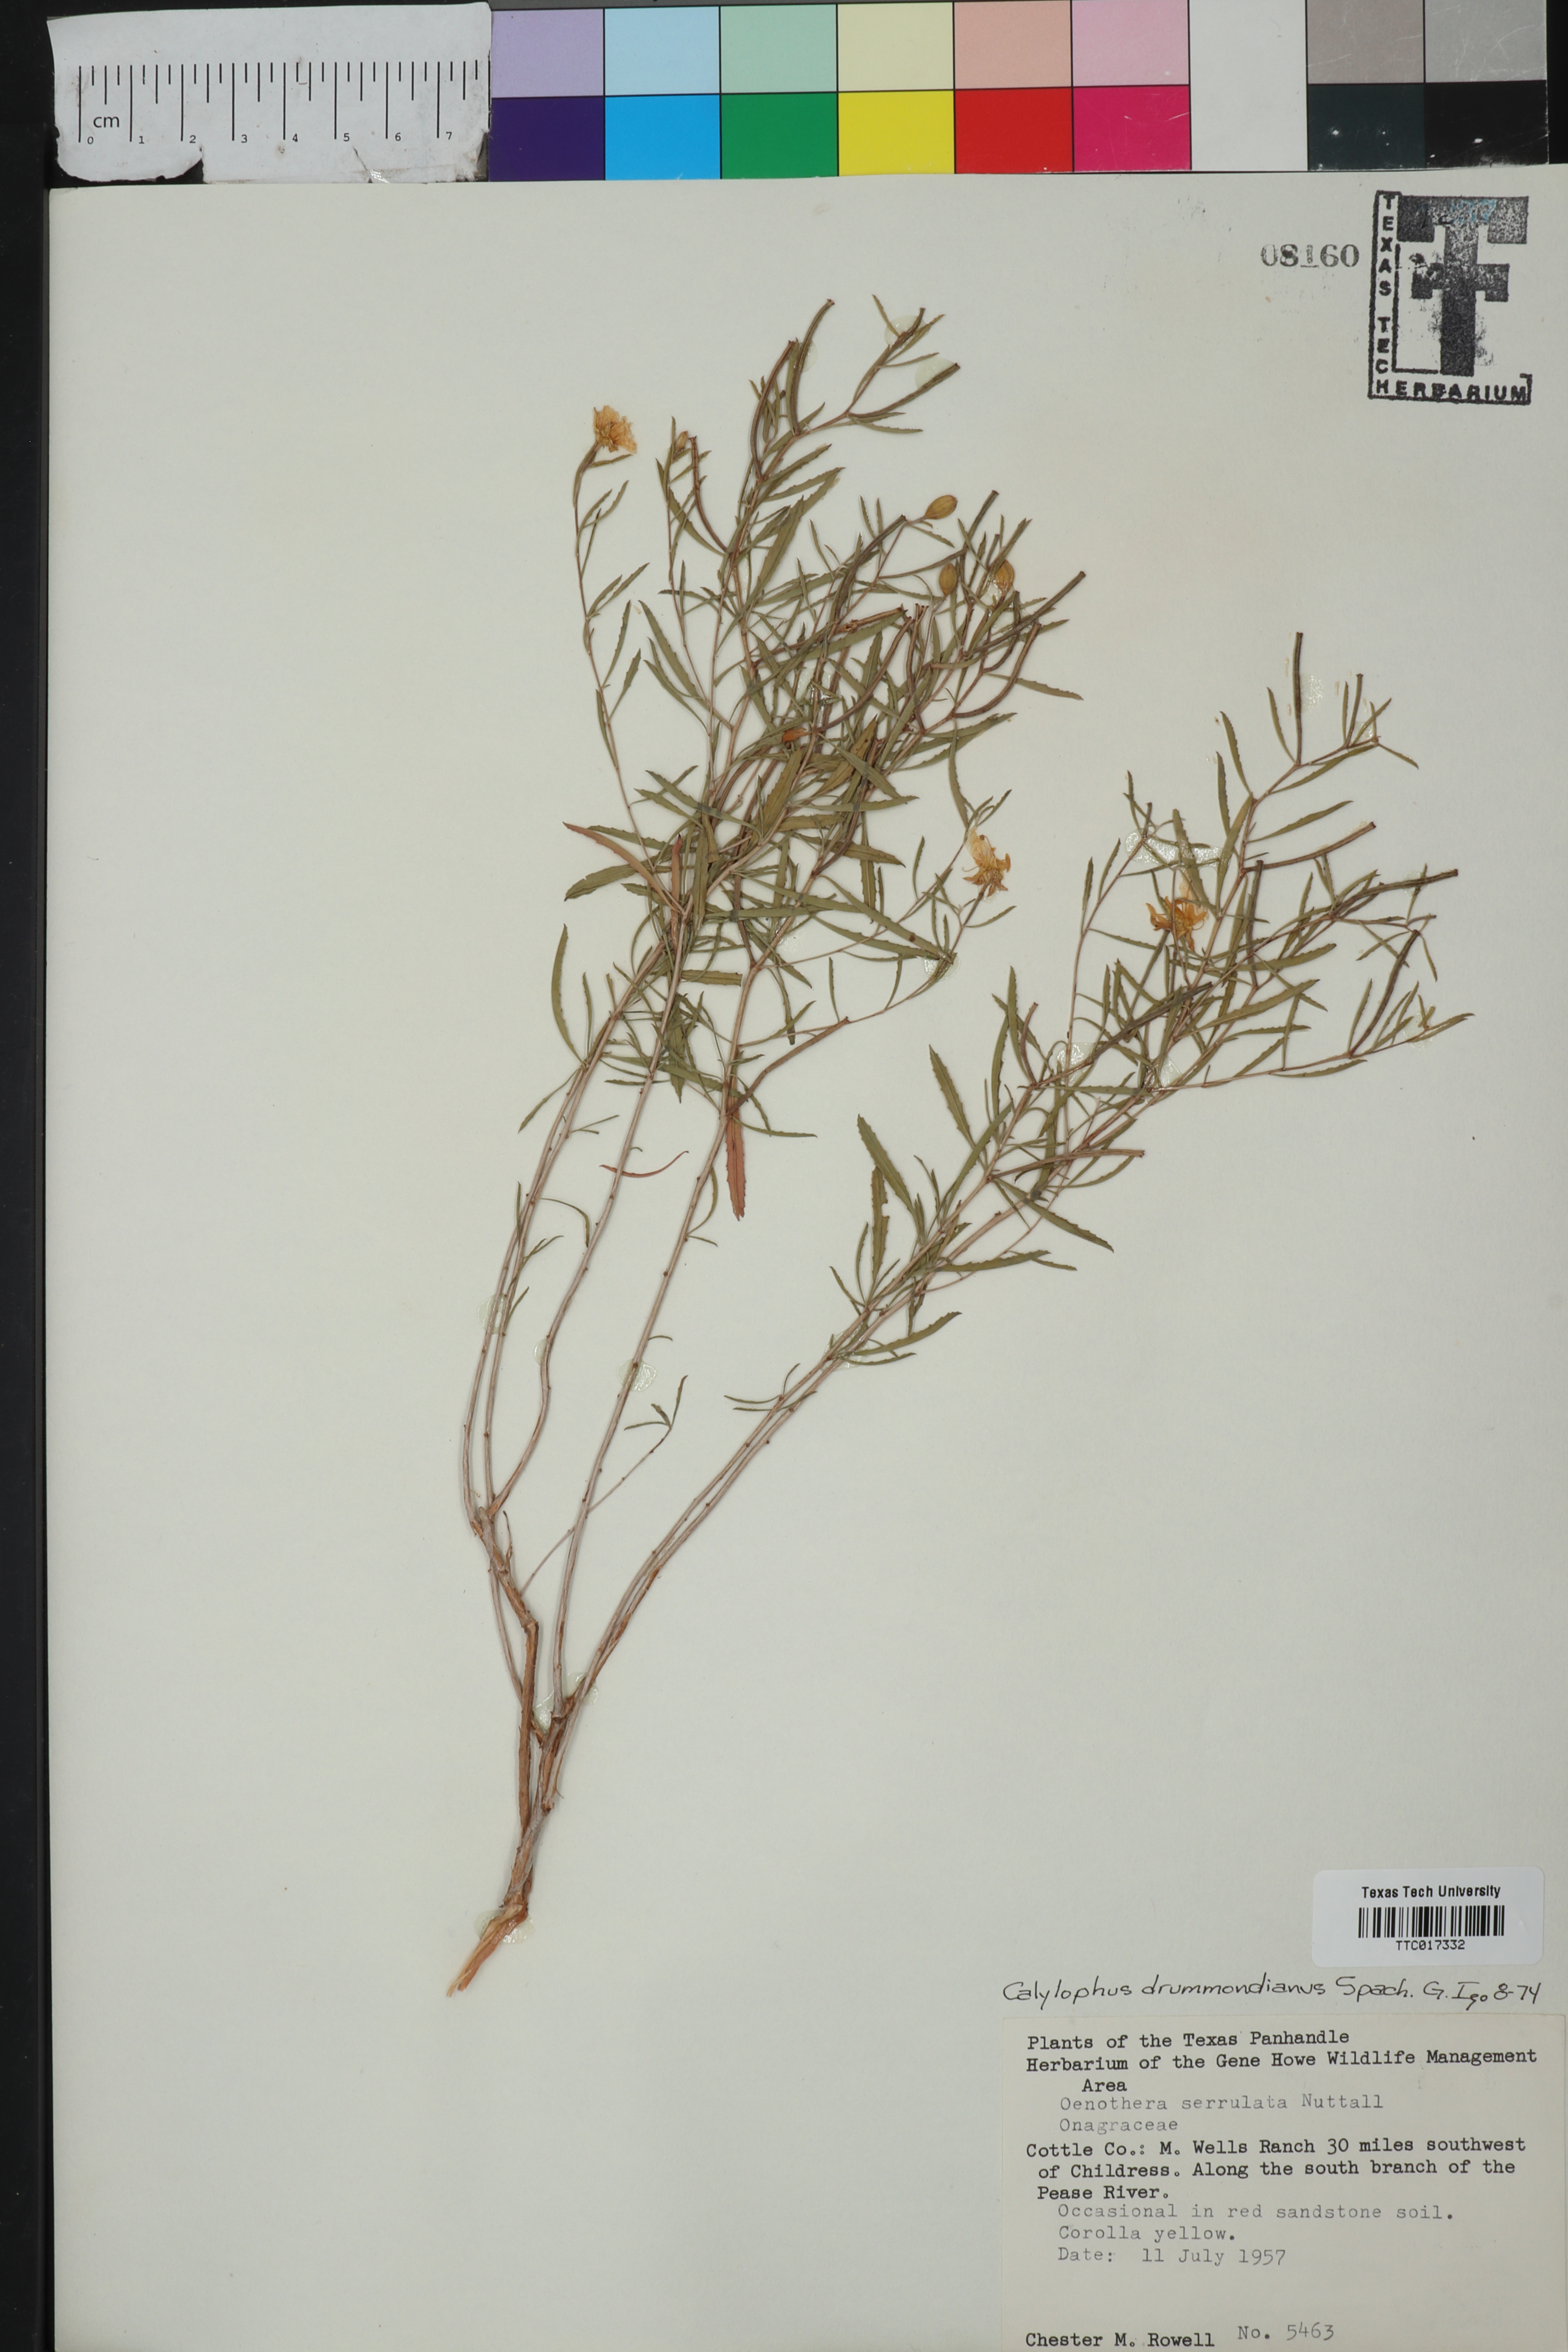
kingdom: Plantae
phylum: Tracheophyta
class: Magnoliopsida
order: Myrtales
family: Onagraceae
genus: Oenothera
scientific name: Oenothera serrulata
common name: Half-shrub calylophus
